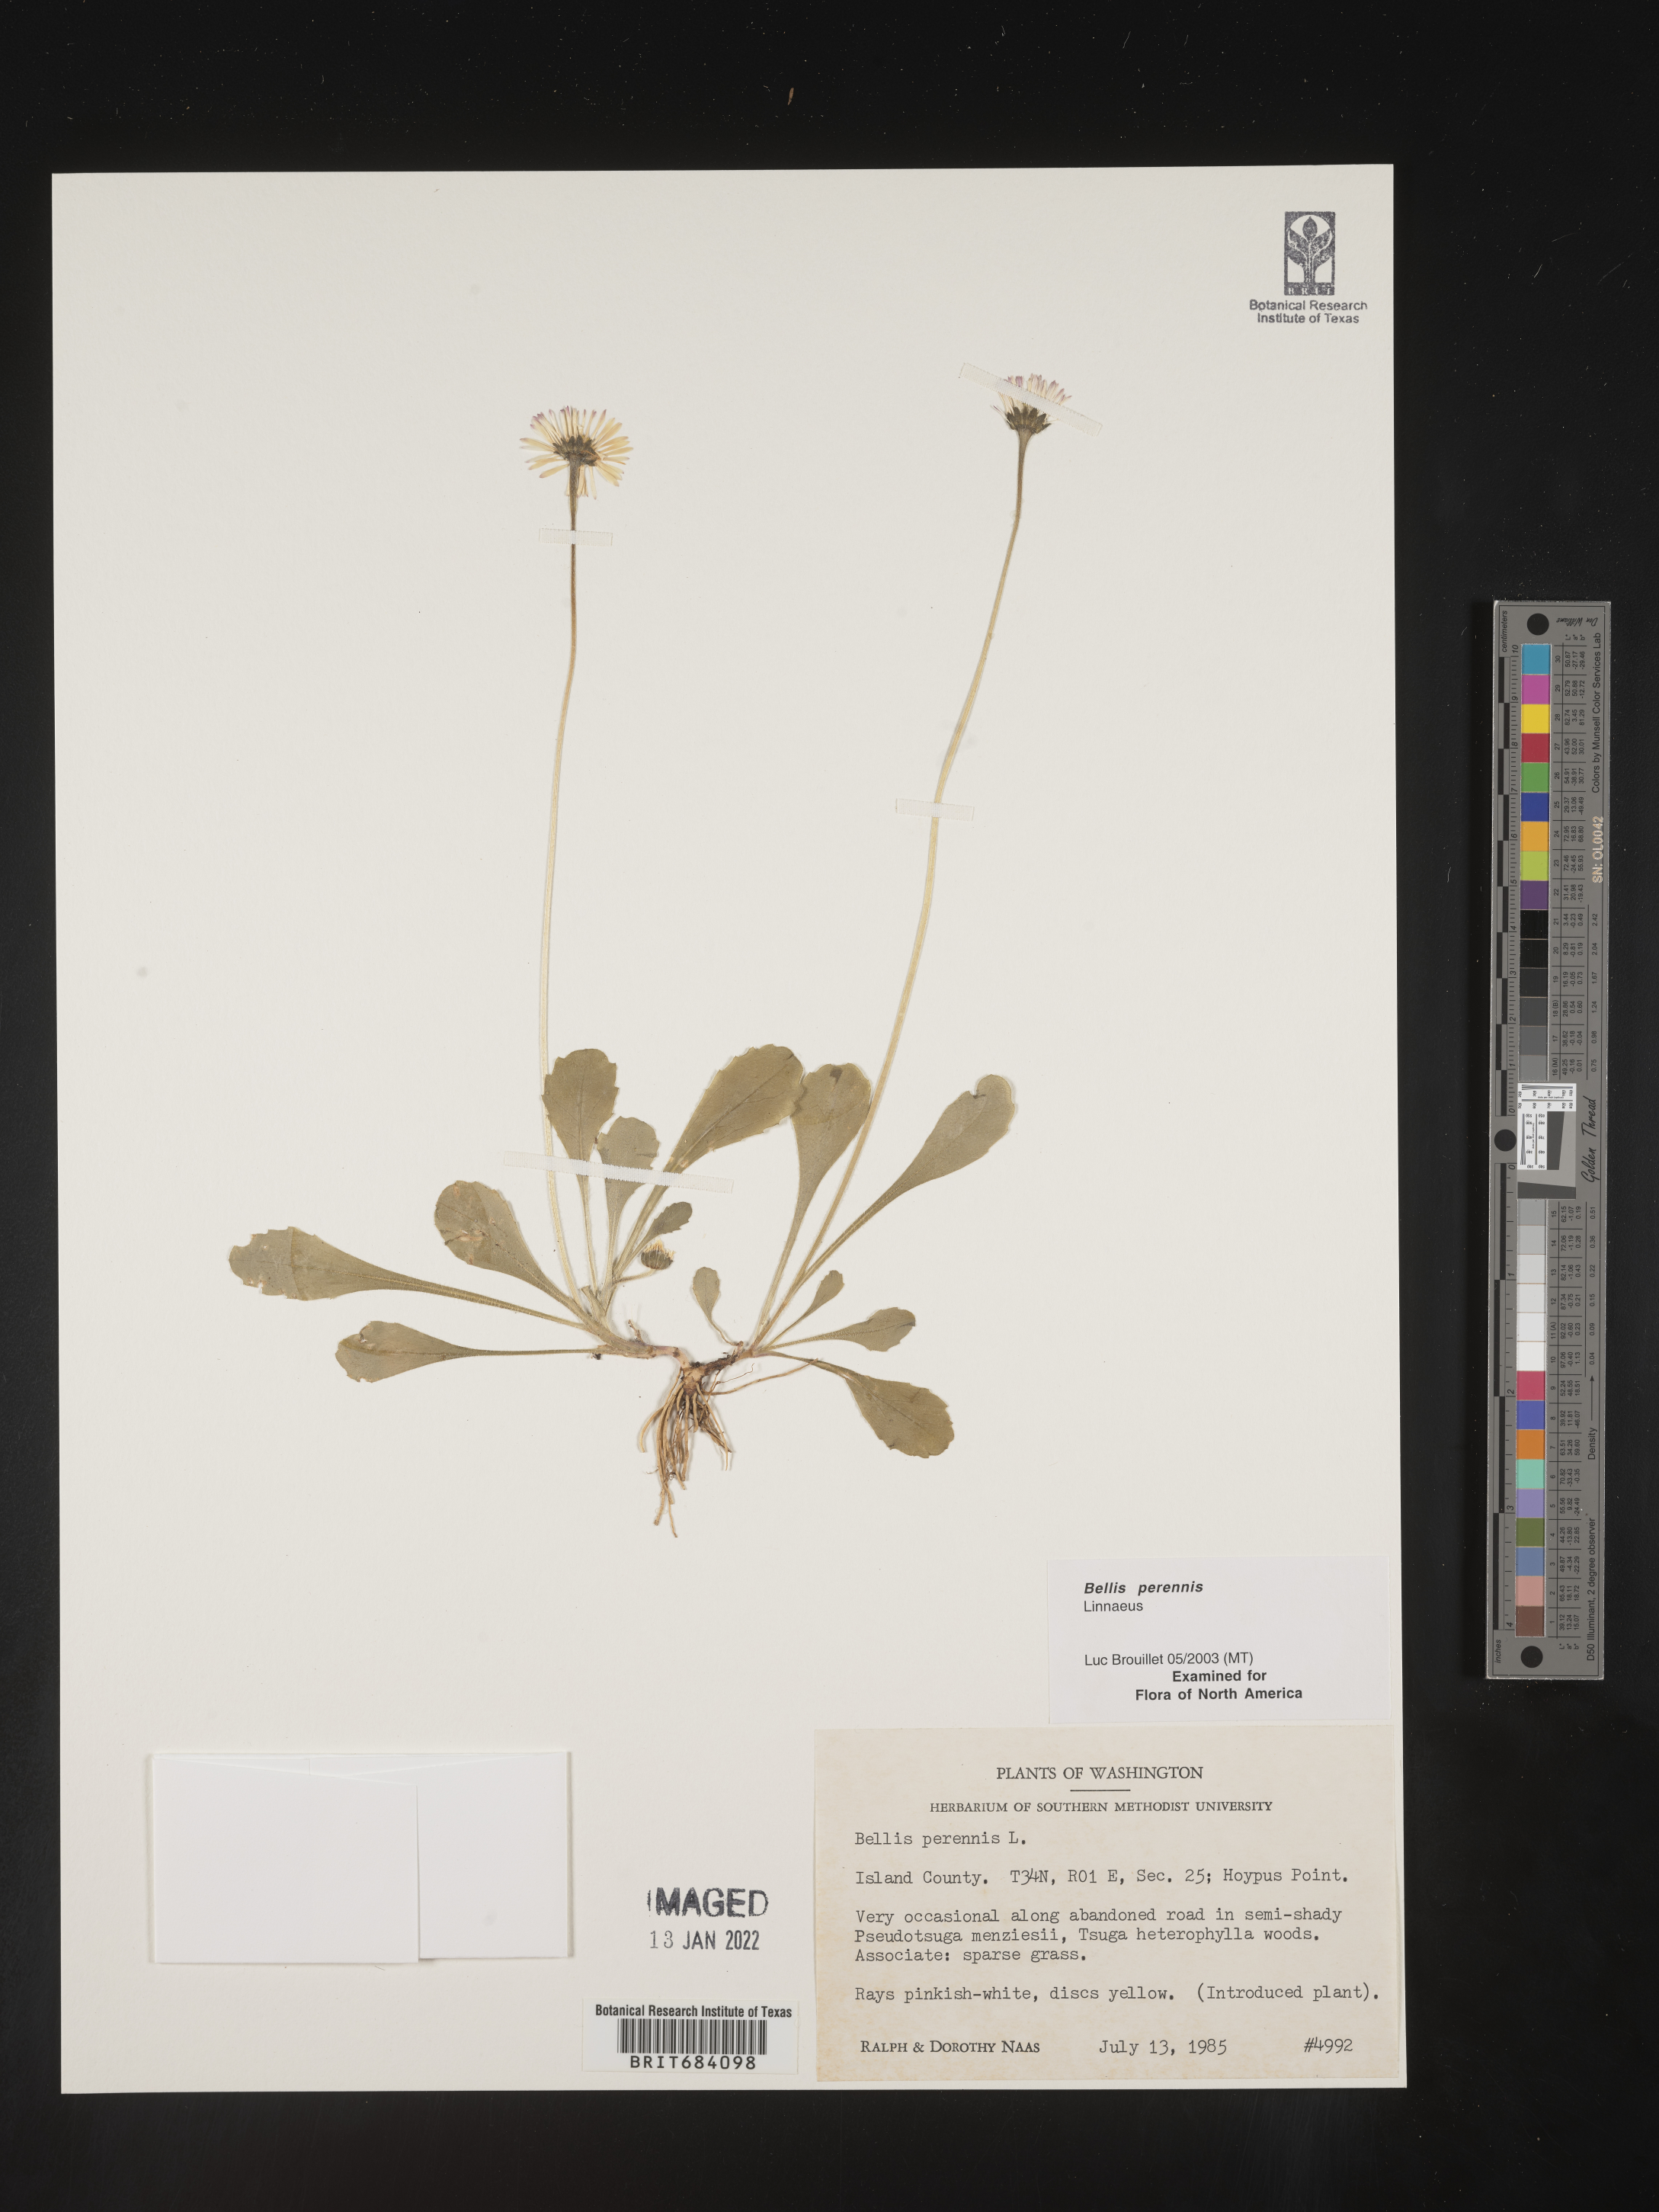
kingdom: Plantae
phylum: Tracheophyta
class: Magnoliopsida
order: Asterales
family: Asteraceae
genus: Bellis
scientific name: Bellis
